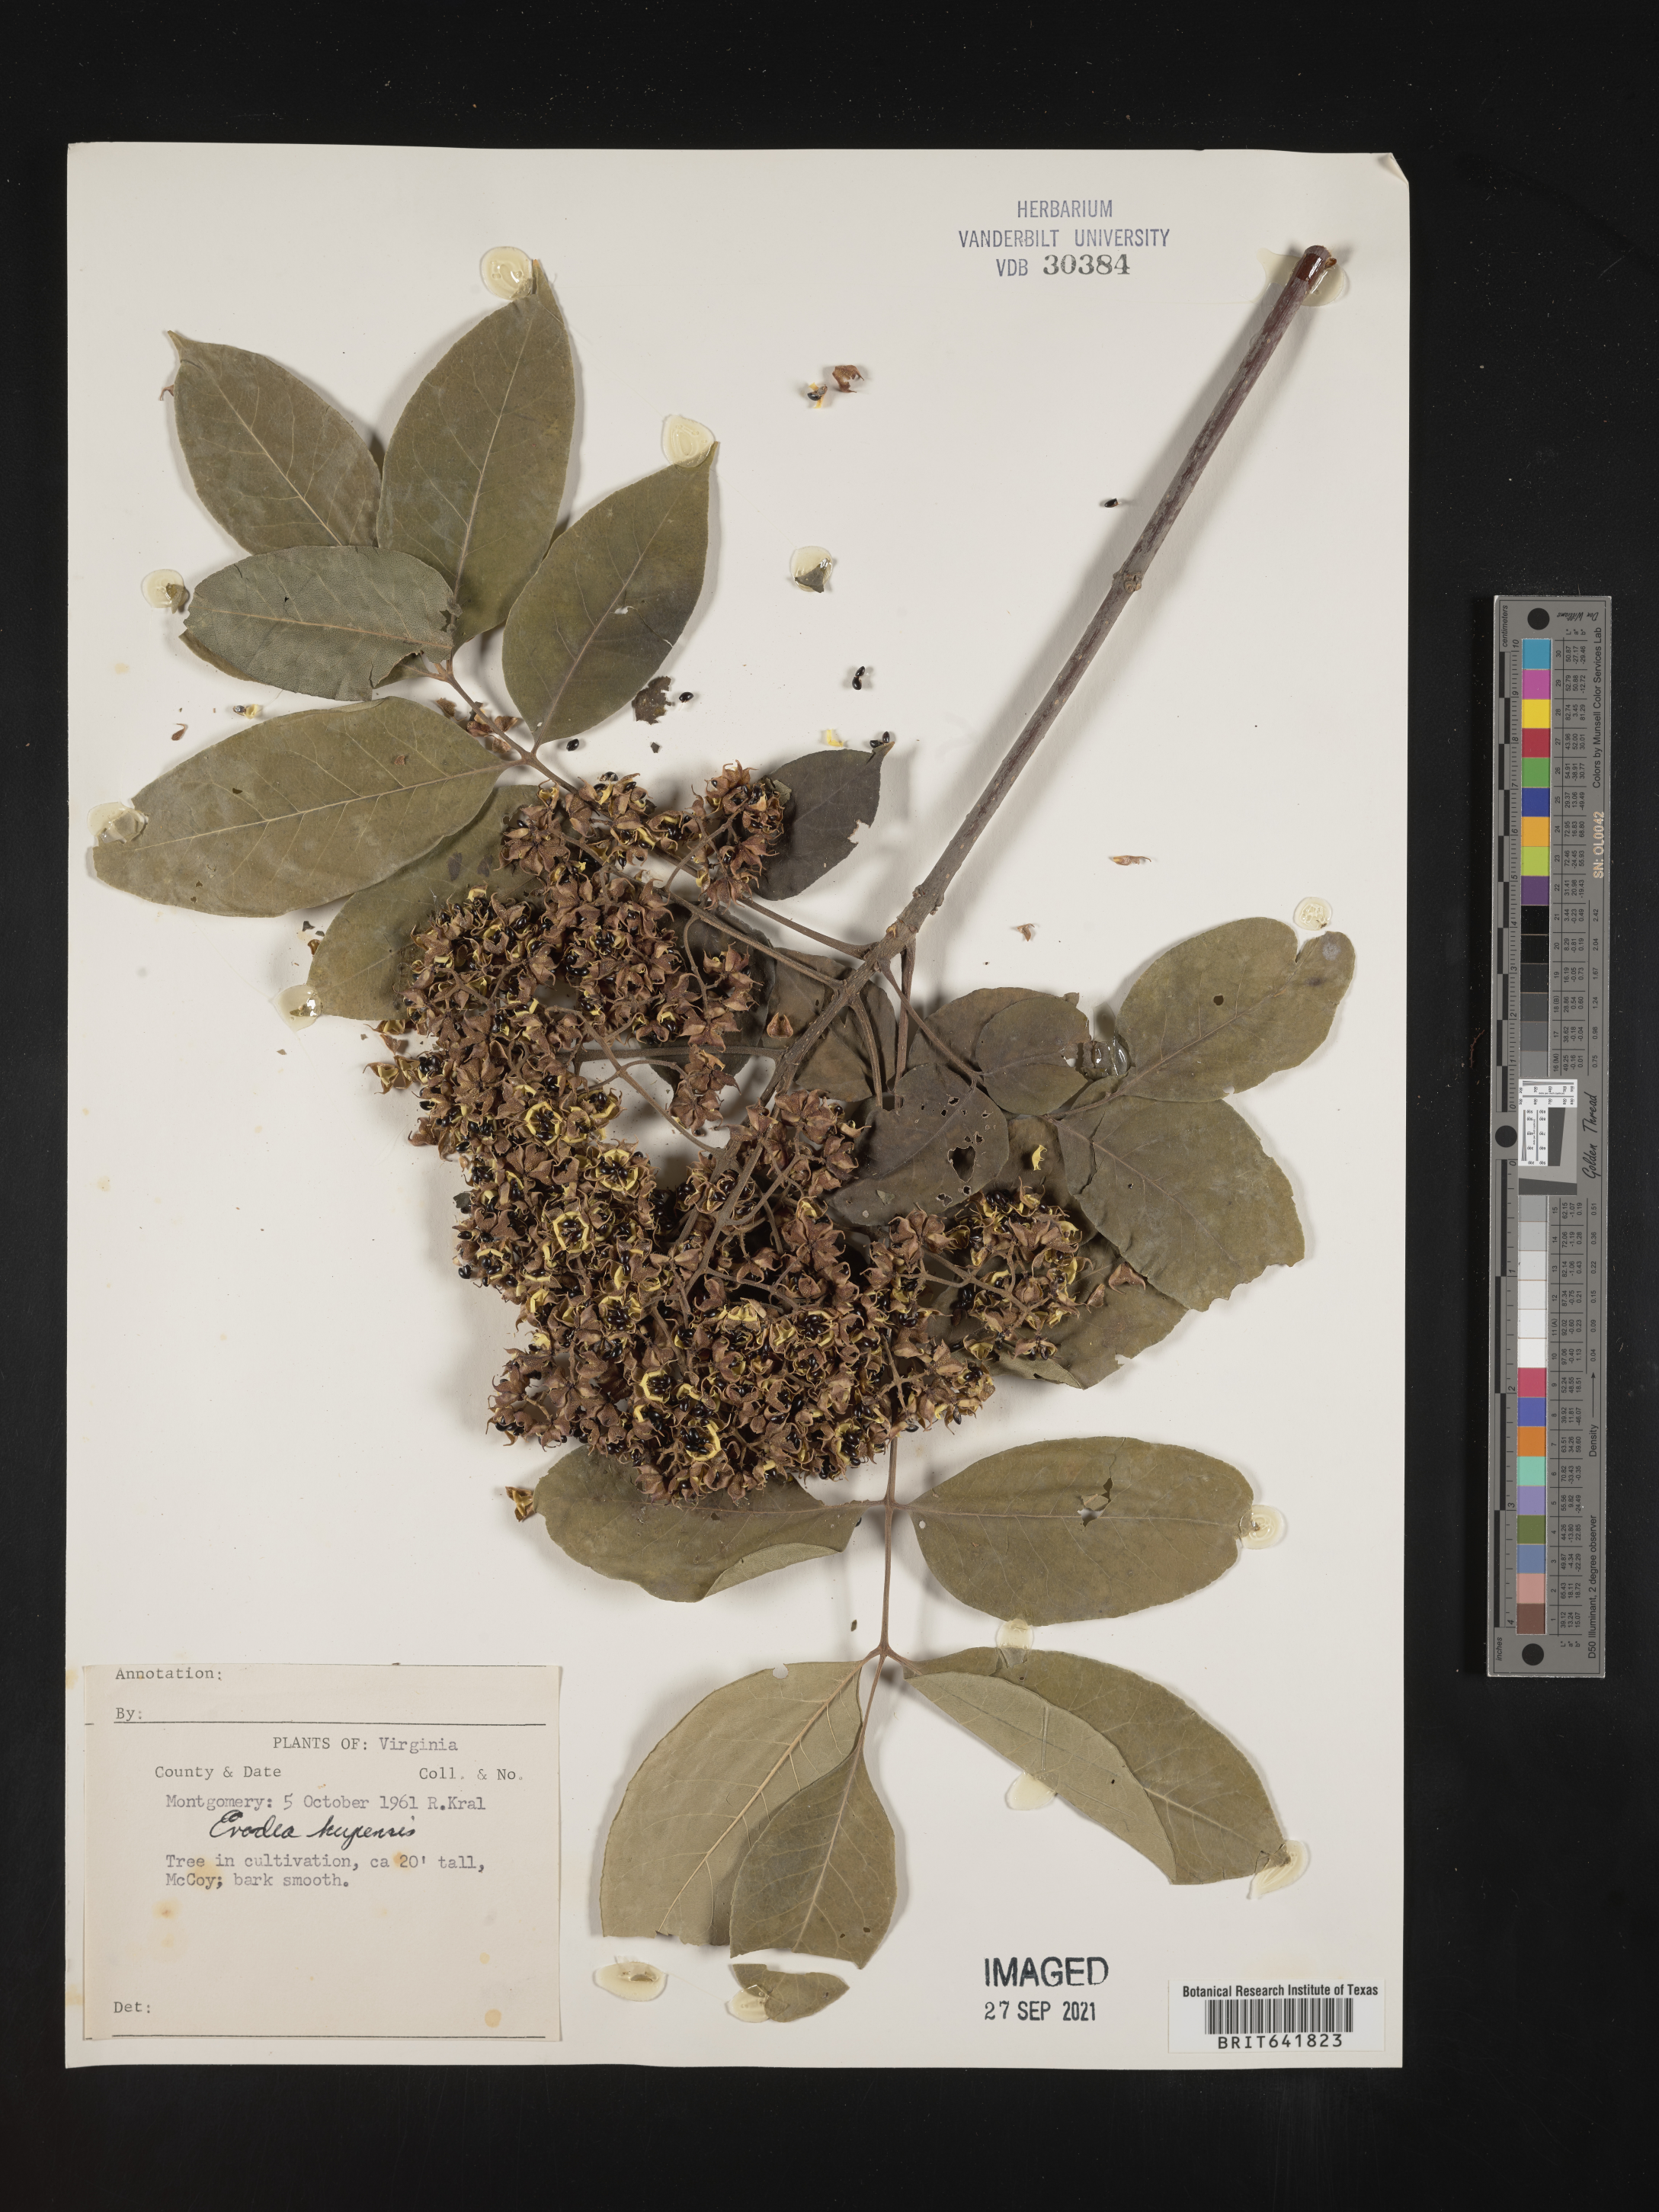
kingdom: Plantae
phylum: Tracheophyta
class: Magnoliopsida
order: Sapindales
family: Rutaceae
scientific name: Rutaceae
